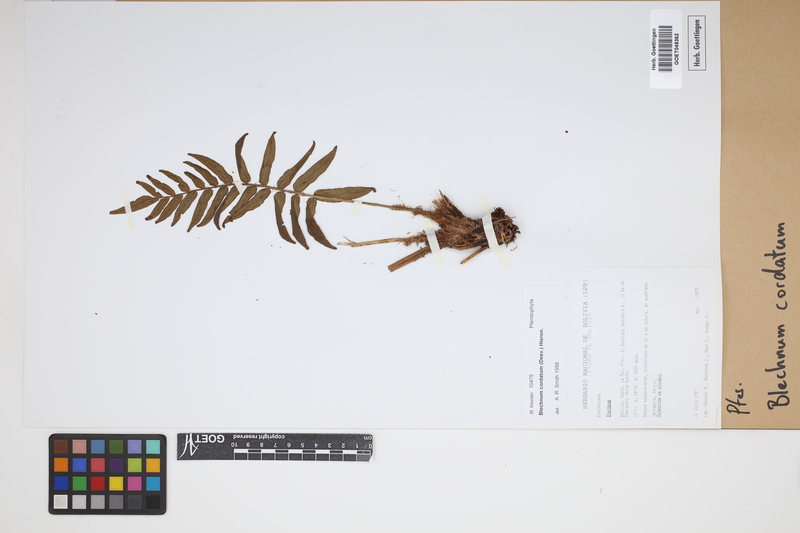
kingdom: Plantae
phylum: Tracheophyta
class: Polypodiopsida
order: Polypodiales
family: Blechnaceae
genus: Parablechnum
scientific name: Parablechnum cordatum
